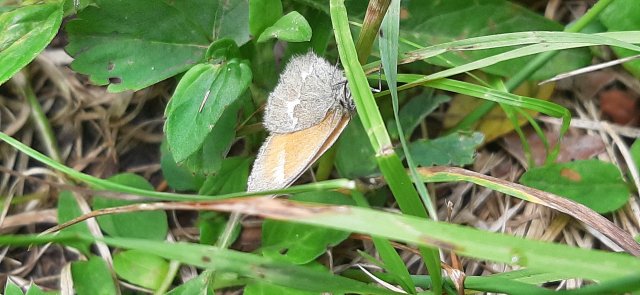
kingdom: Animalia
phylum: Arthropoda
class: Insecta
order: Lepidoptera
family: Nymphalidae
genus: Coenonympha
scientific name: Coenonympha tullia
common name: Large Heath
